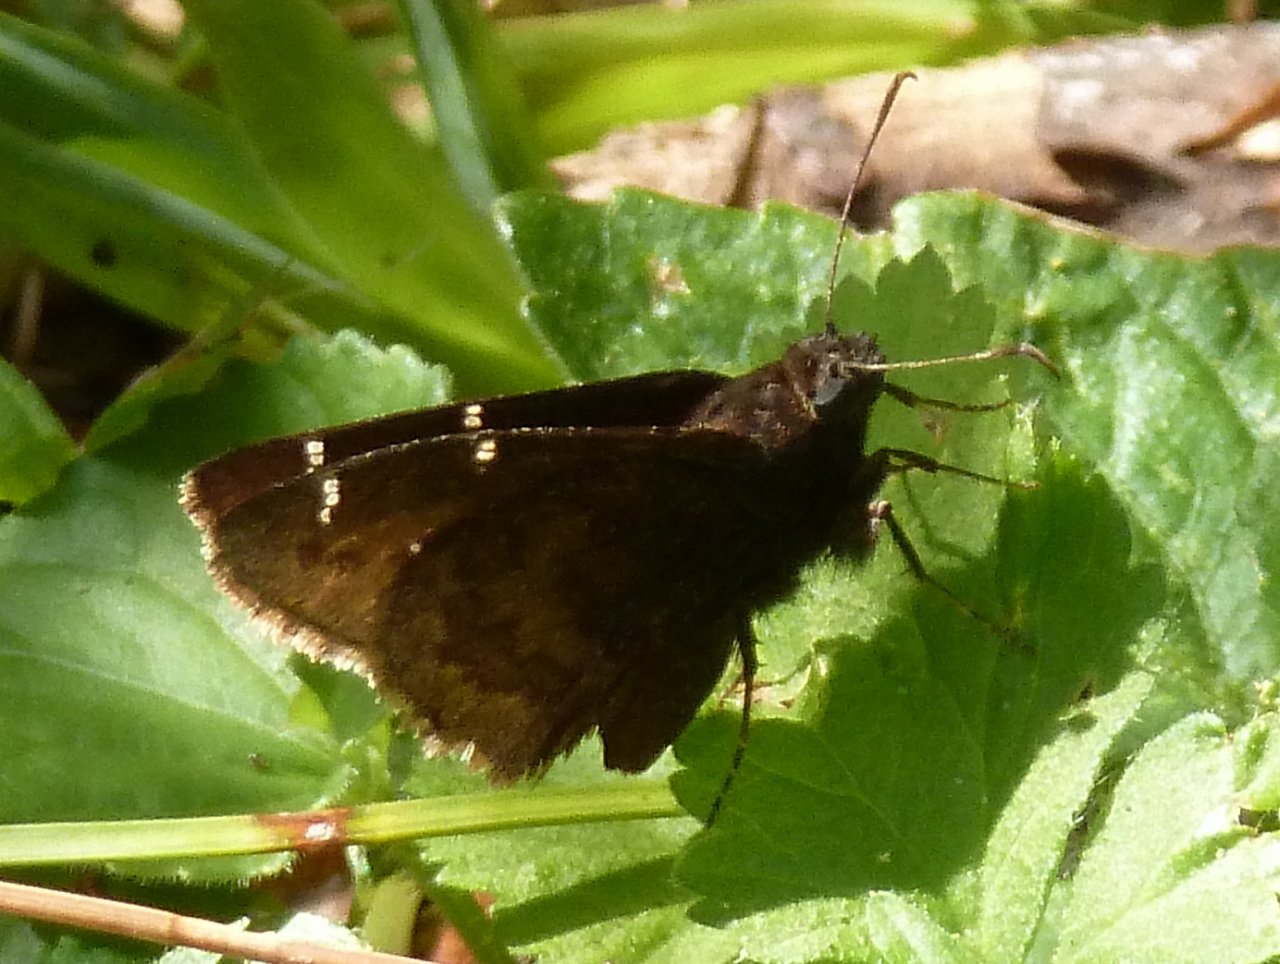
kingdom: Animalia
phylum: Arthropoda
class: Insecta
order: Lepidoptera
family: Hesperiidae
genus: Autochton
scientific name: Autochton
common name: Northern Cloudywing
